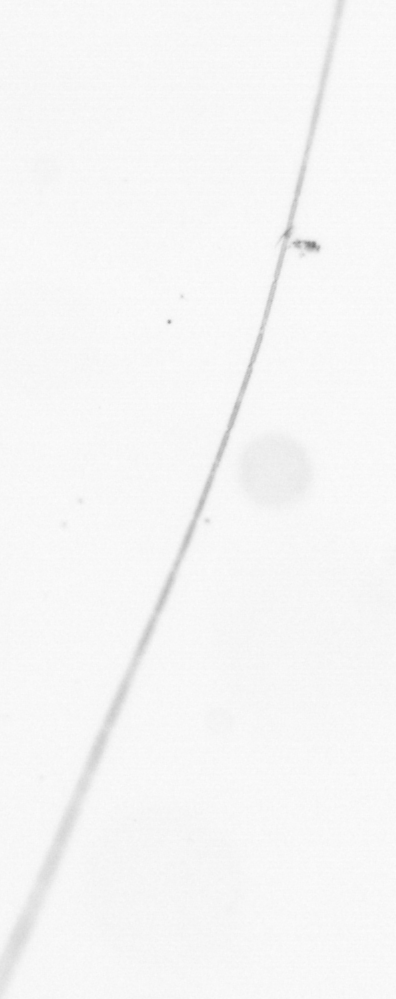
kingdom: Chromista
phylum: Ochrophyta
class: Bacillariophyceae
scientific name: Bacillariophyceae
